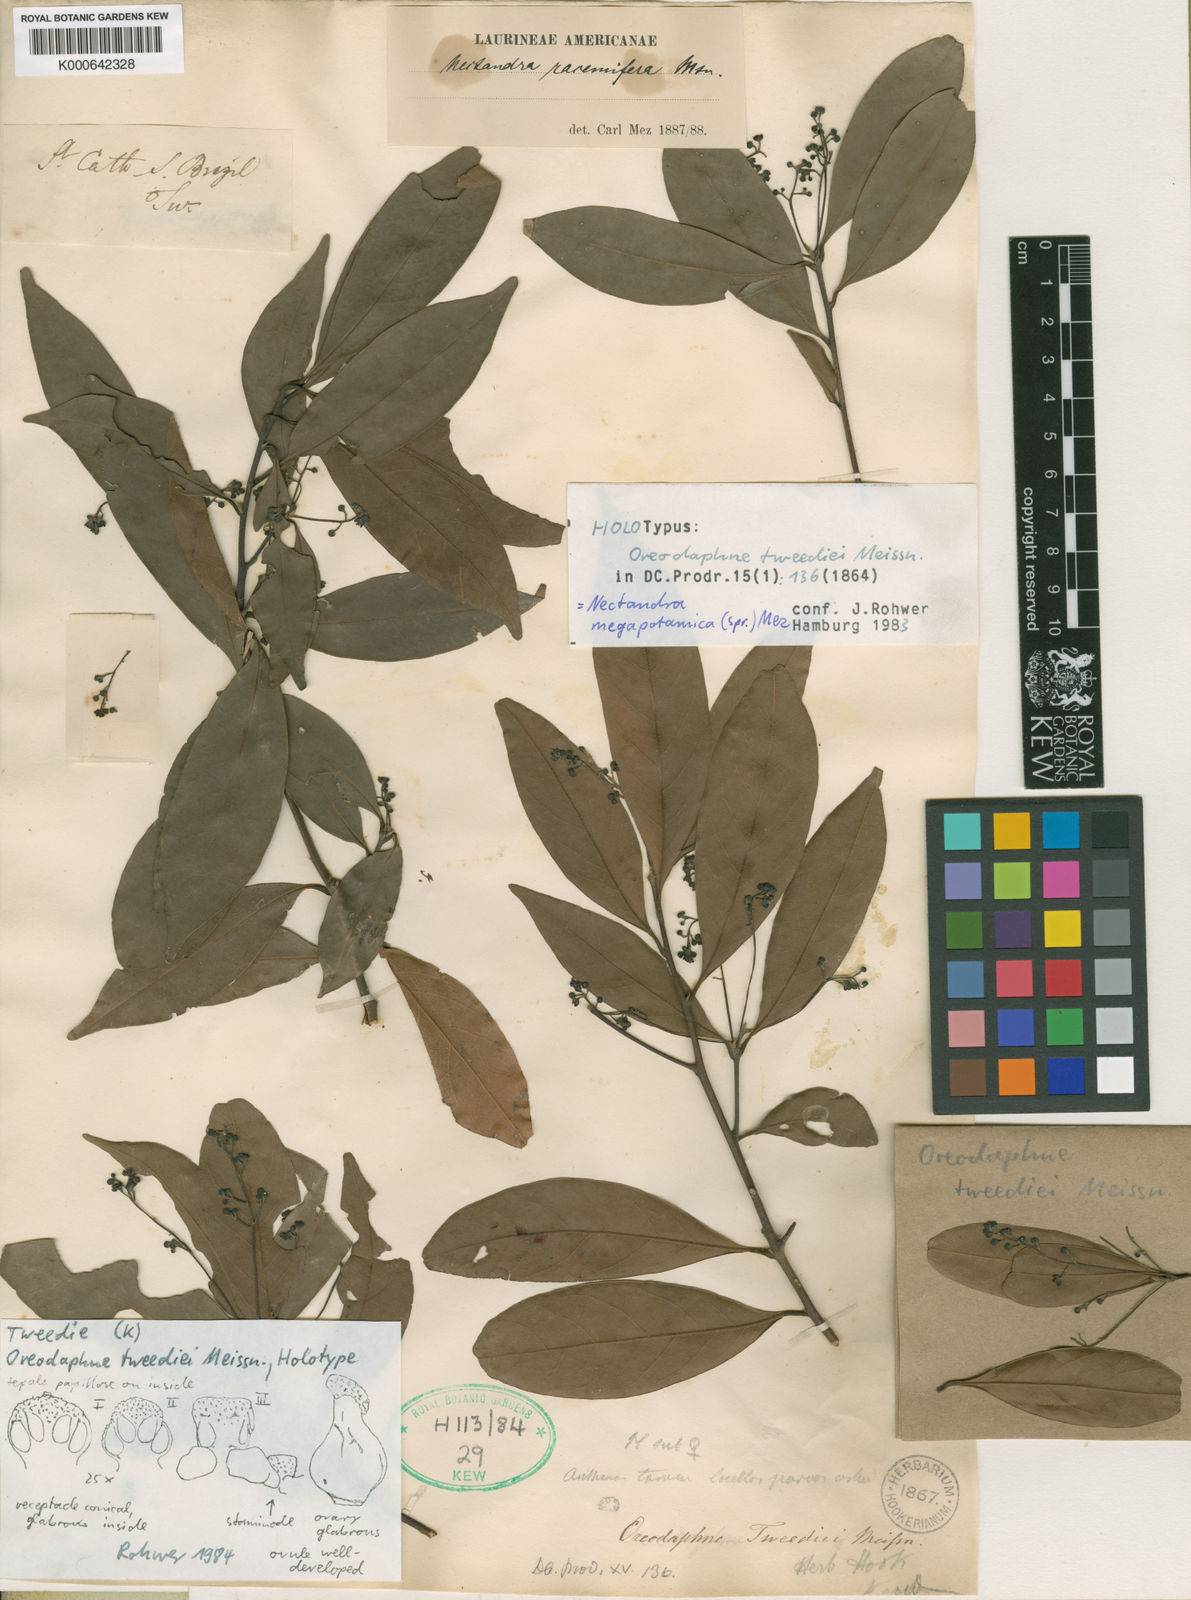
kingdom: Plantae
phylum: Tracheophyta
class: Magnoliopsida
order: Laurales
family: Lauraceae
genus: Nectandra
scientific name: Nectandra megapotamica
